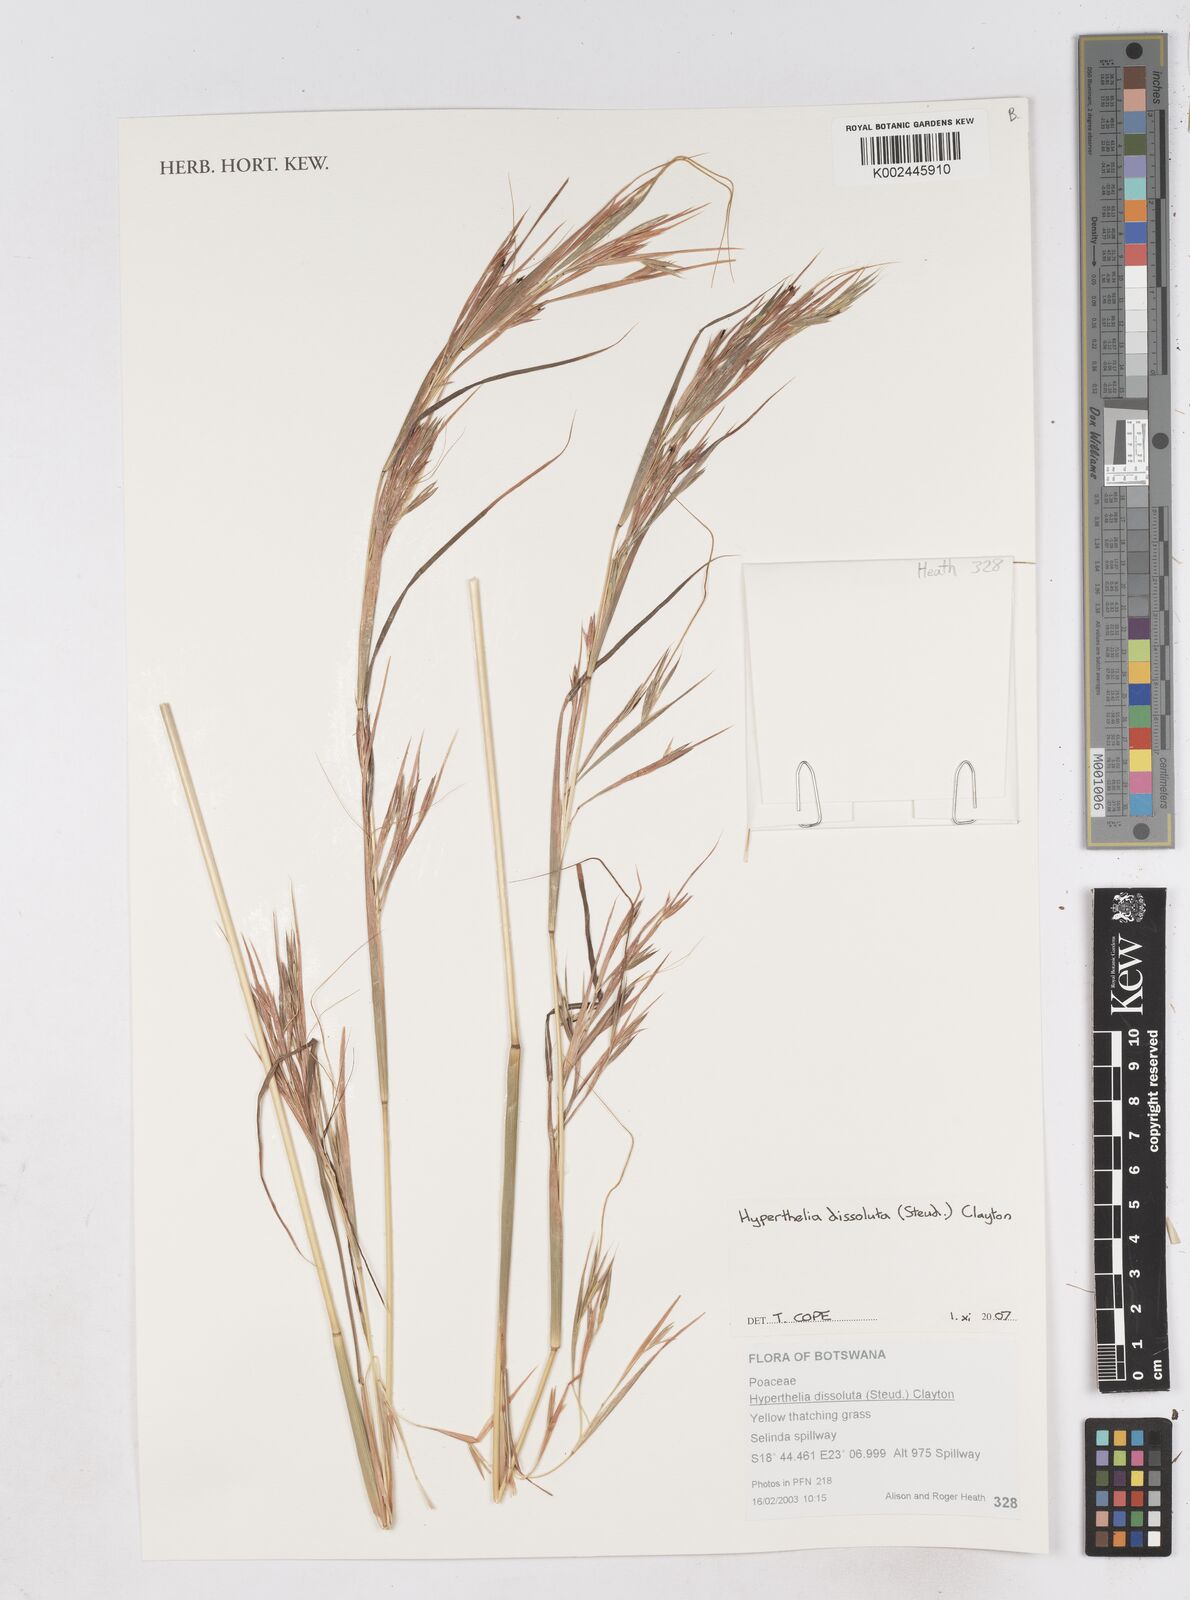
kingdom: Plantae
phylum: Tracheophyta
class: Liliopsida
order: Poales
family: Poaceae
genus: Hyperthelia
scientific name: Hyperthelia dissoluta
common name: Yellow thatching grass
